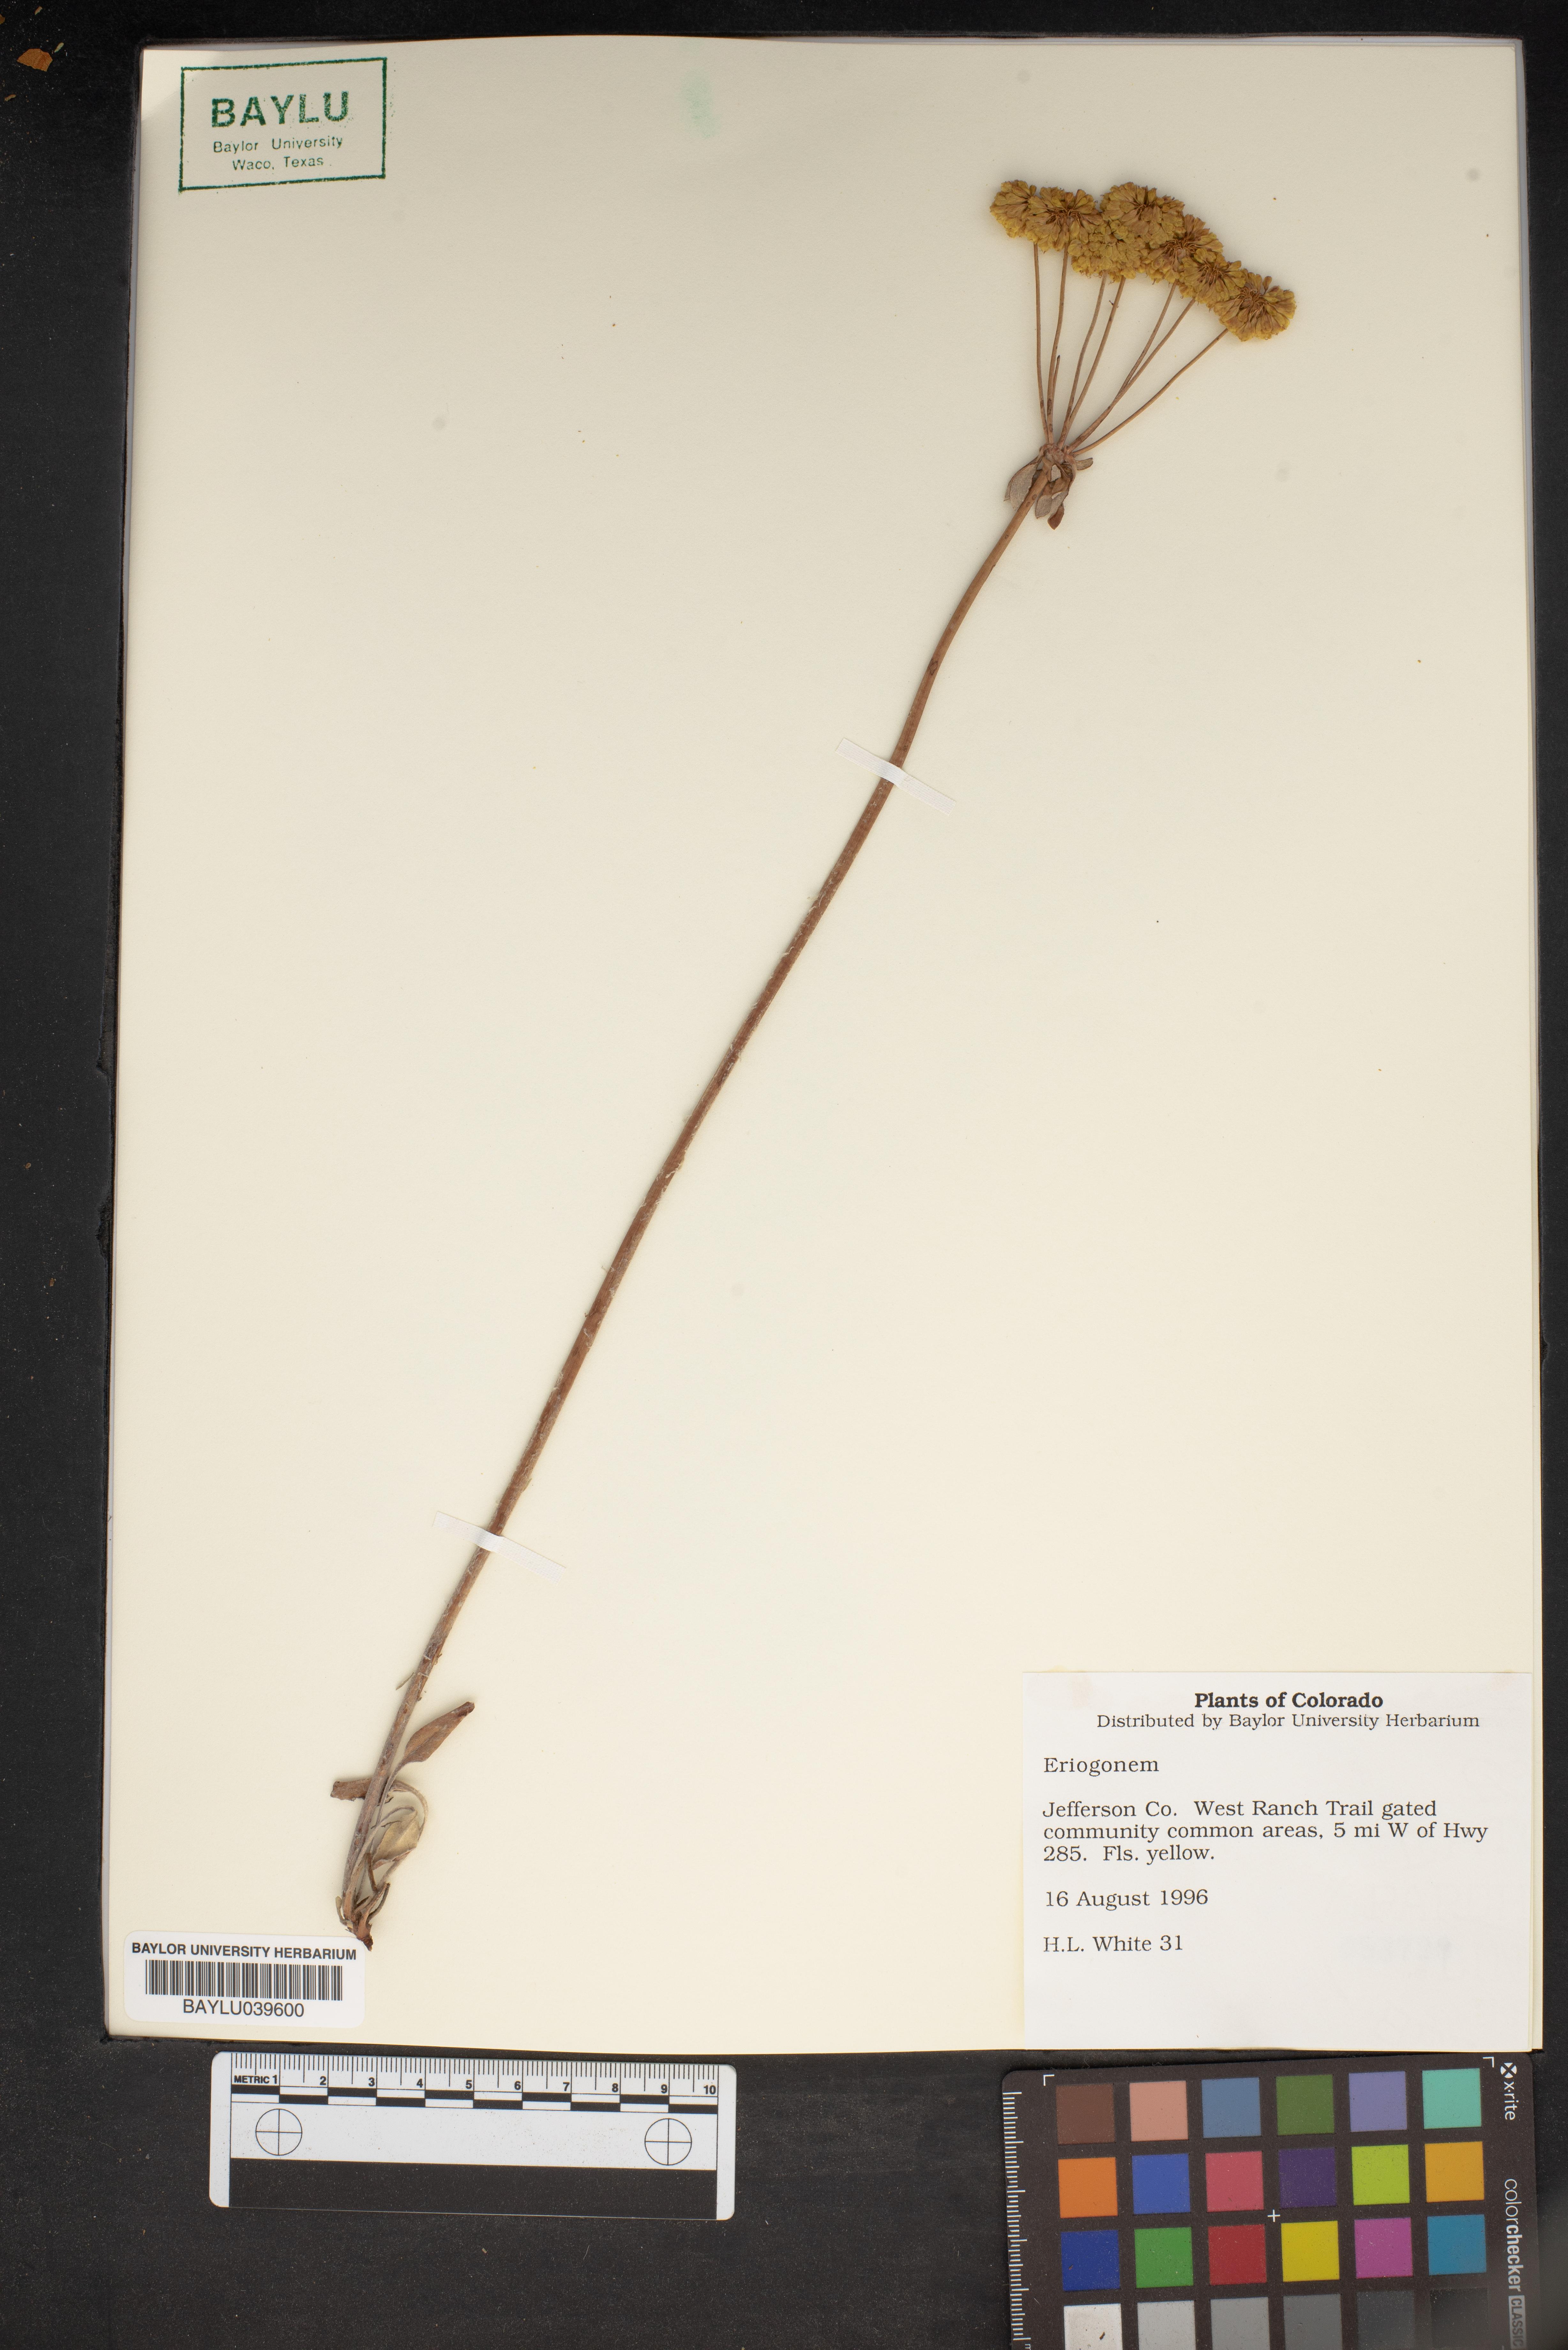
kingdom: Plantae
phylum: Tracheophyta
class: Magnoliopsida
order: Caryophyllales
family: Polygonaceae
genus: Eriogonum
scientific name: Eriogonum
